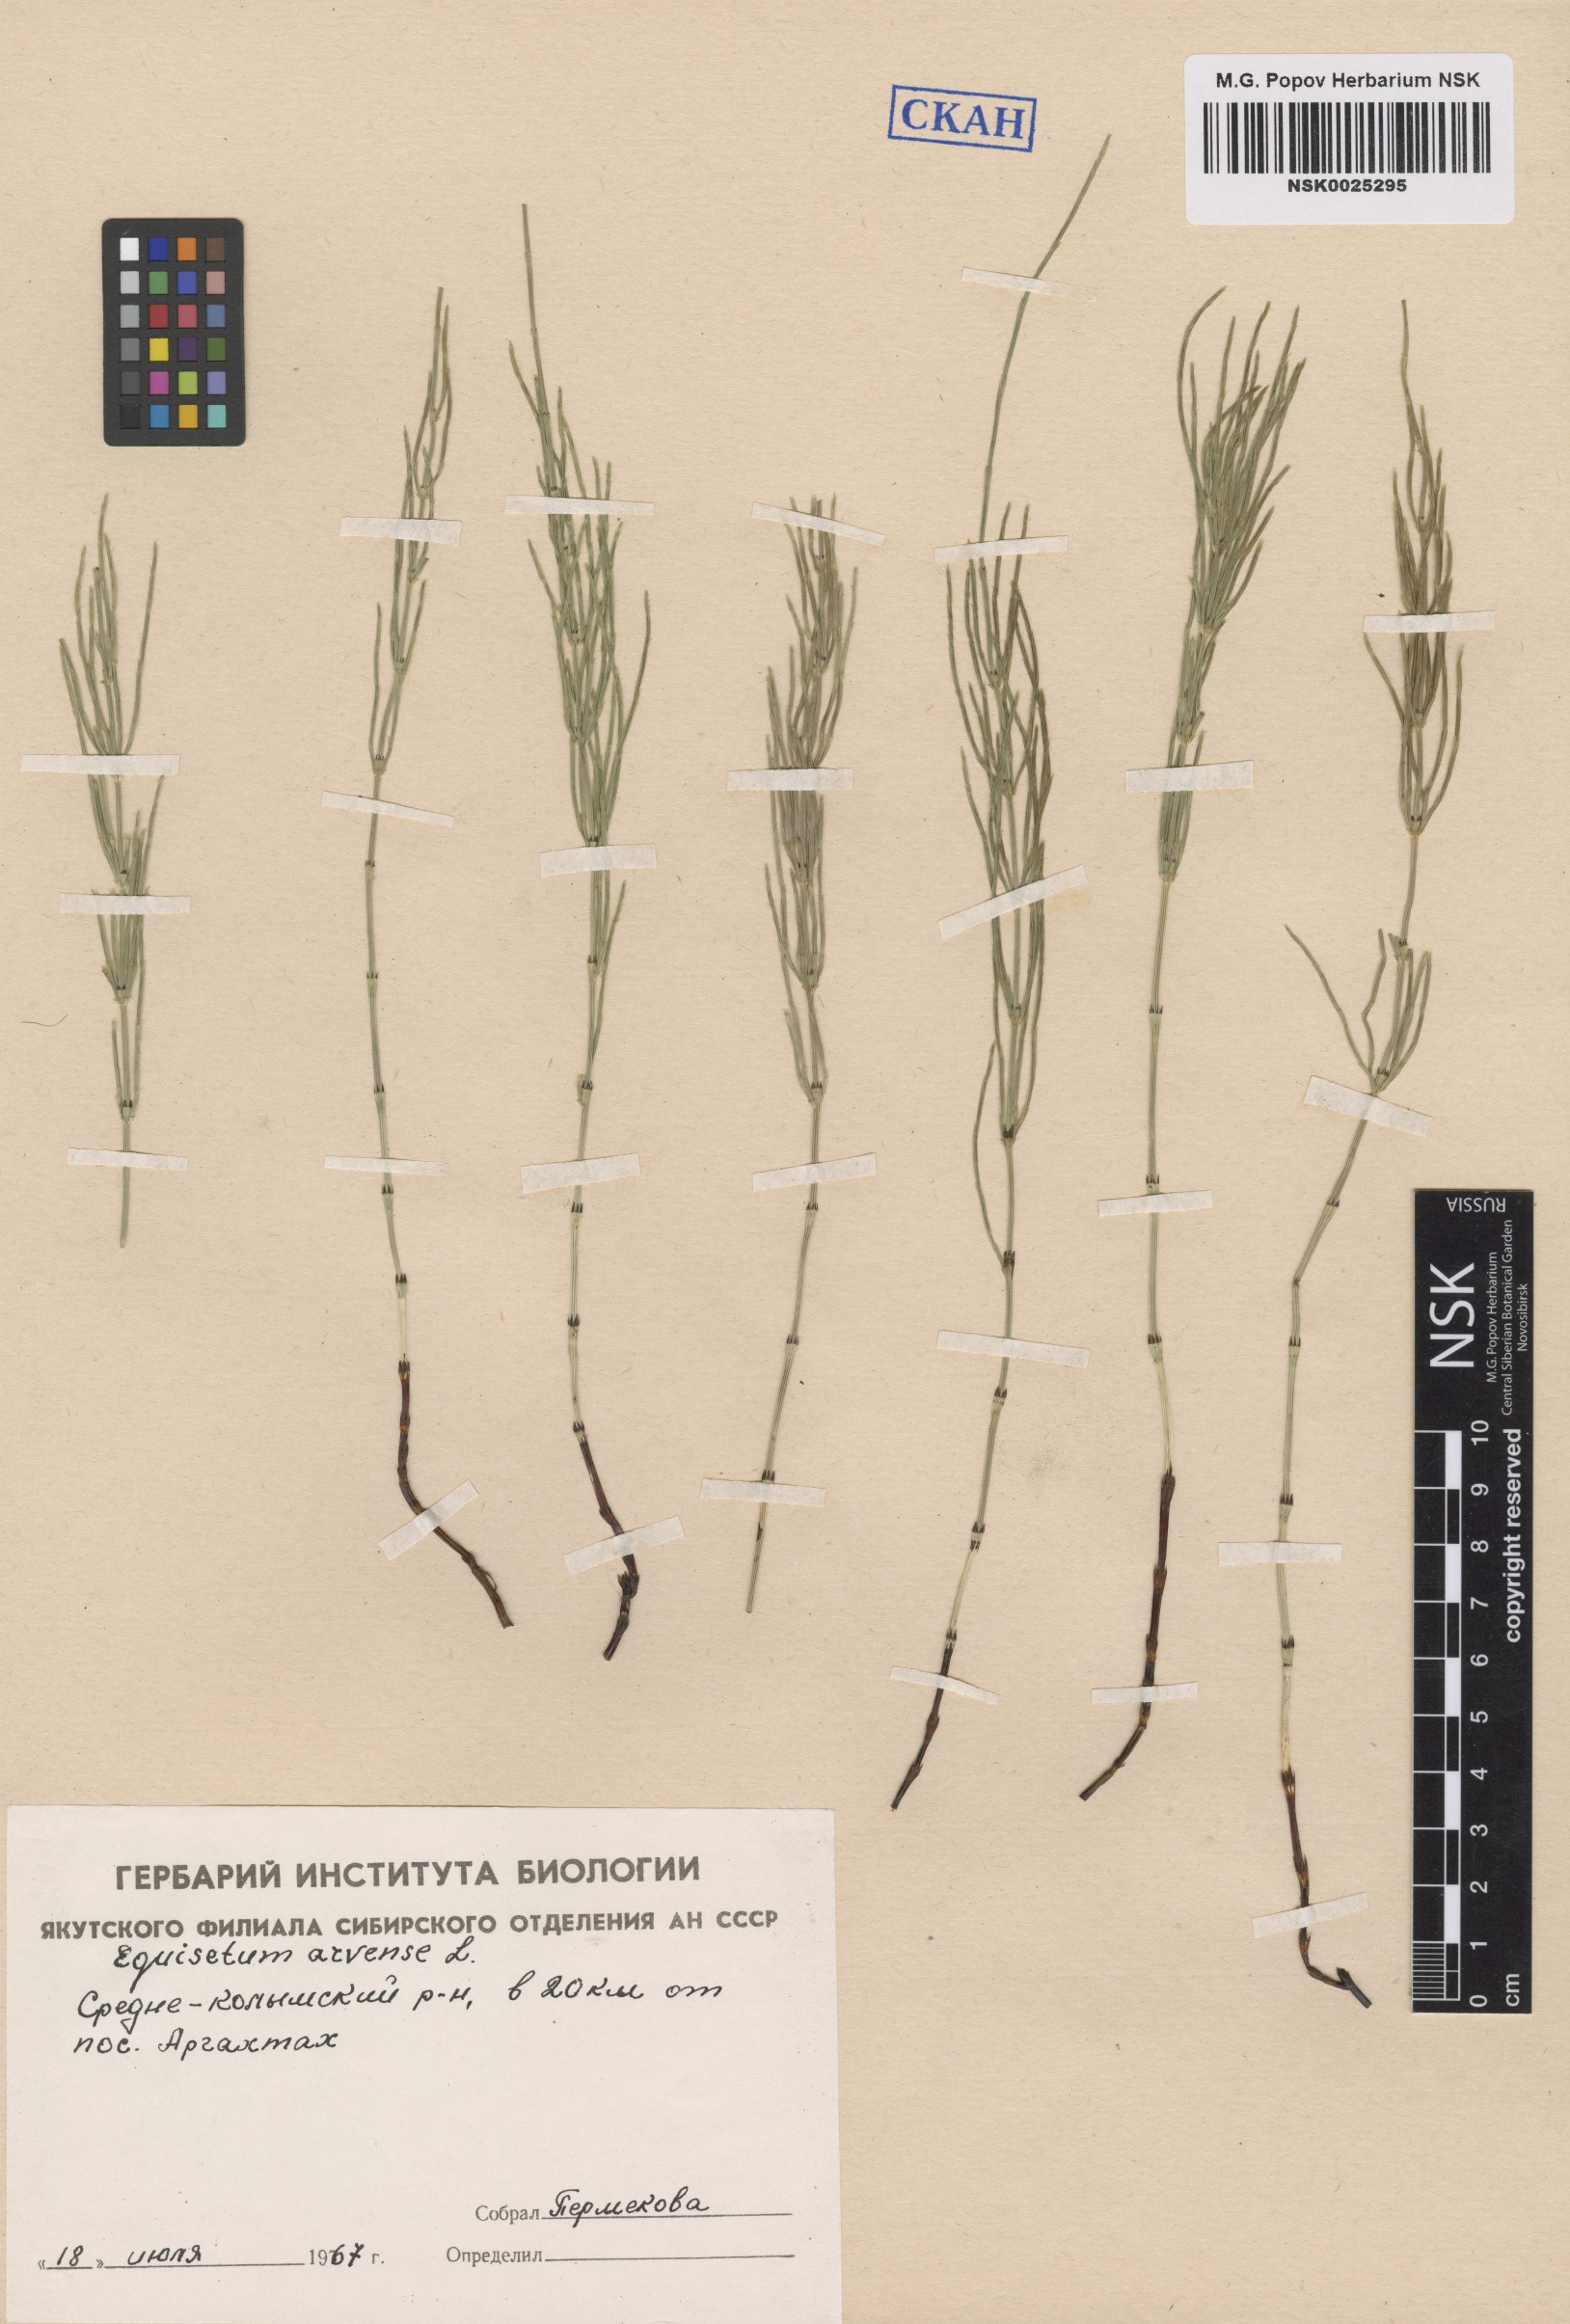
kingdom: Plantae
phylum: Tracheophyta
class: Polypodiopsida
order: Equisetales
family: Equisetaceae
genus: Equisetum
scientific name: Equisetum arvense
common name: Field horsetail
